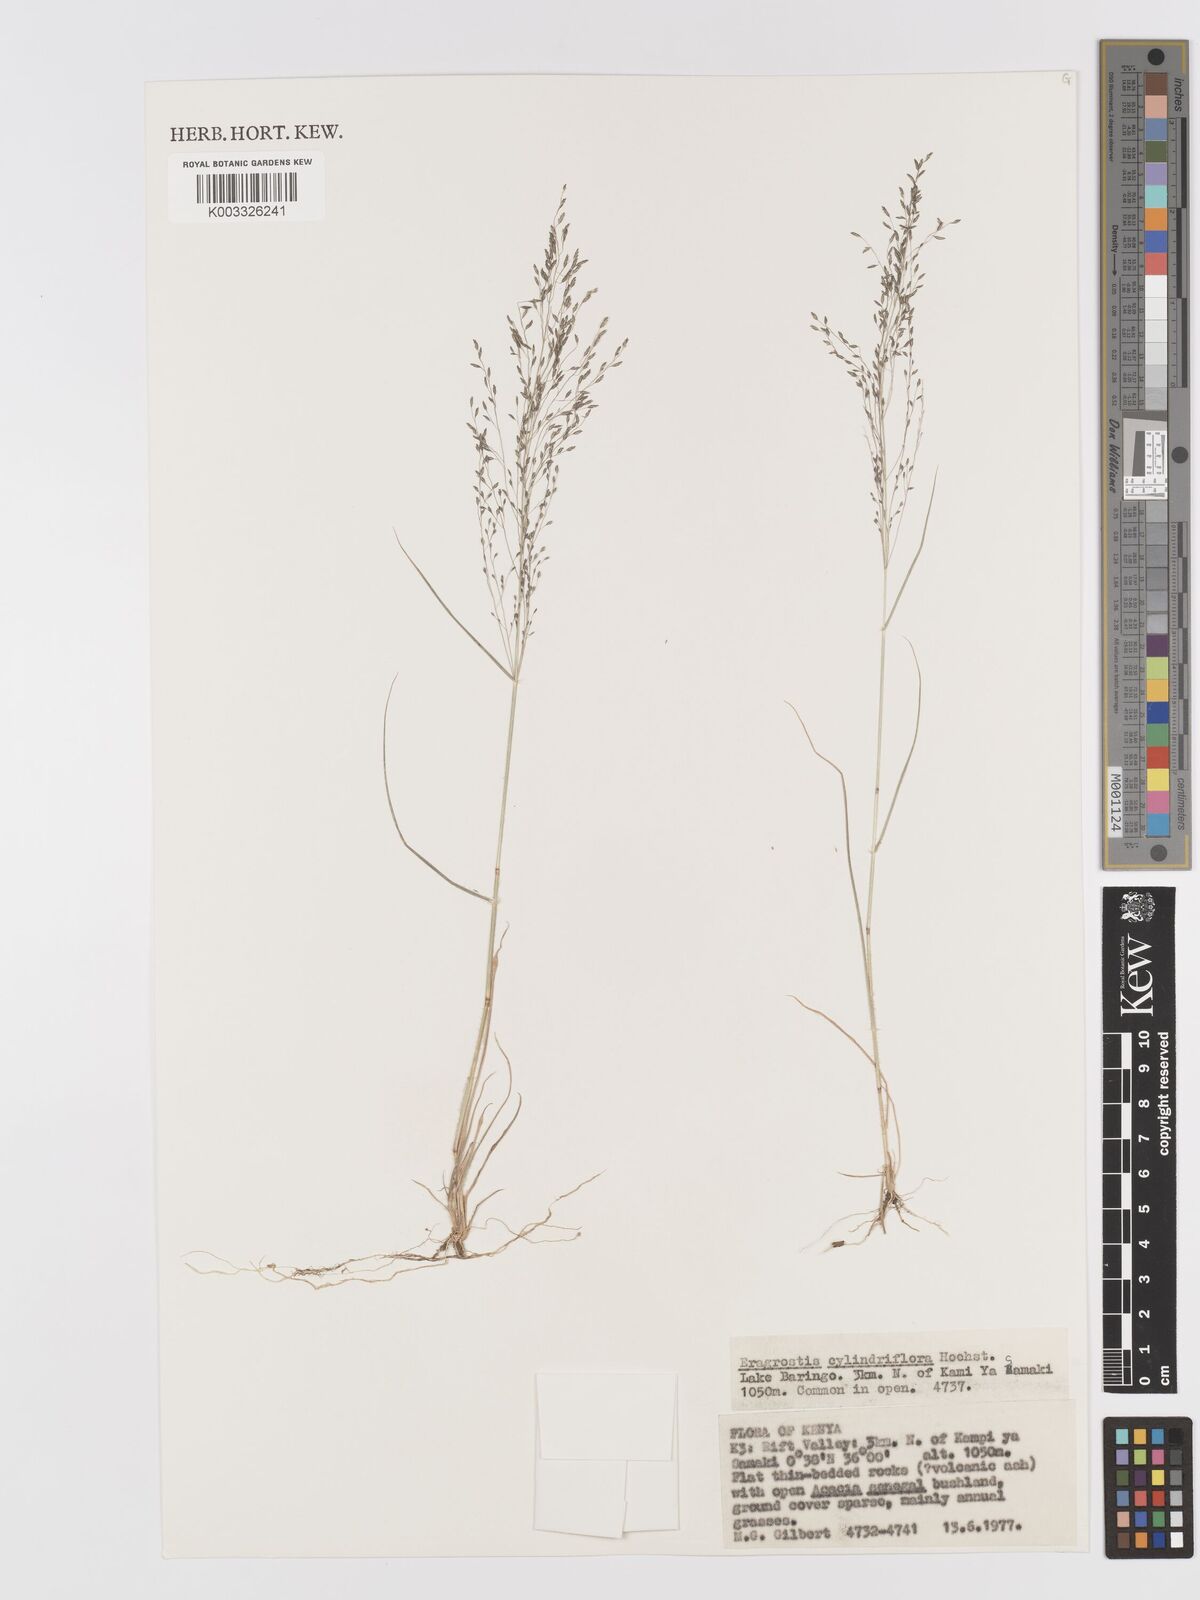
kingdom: Plantae
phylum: Tracheophyta
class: Liliopsida
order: Poales
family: Poaceae
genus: Eragrostis
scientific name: Eragrostis cylindriflora
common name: Cylinderflower lovegrass
